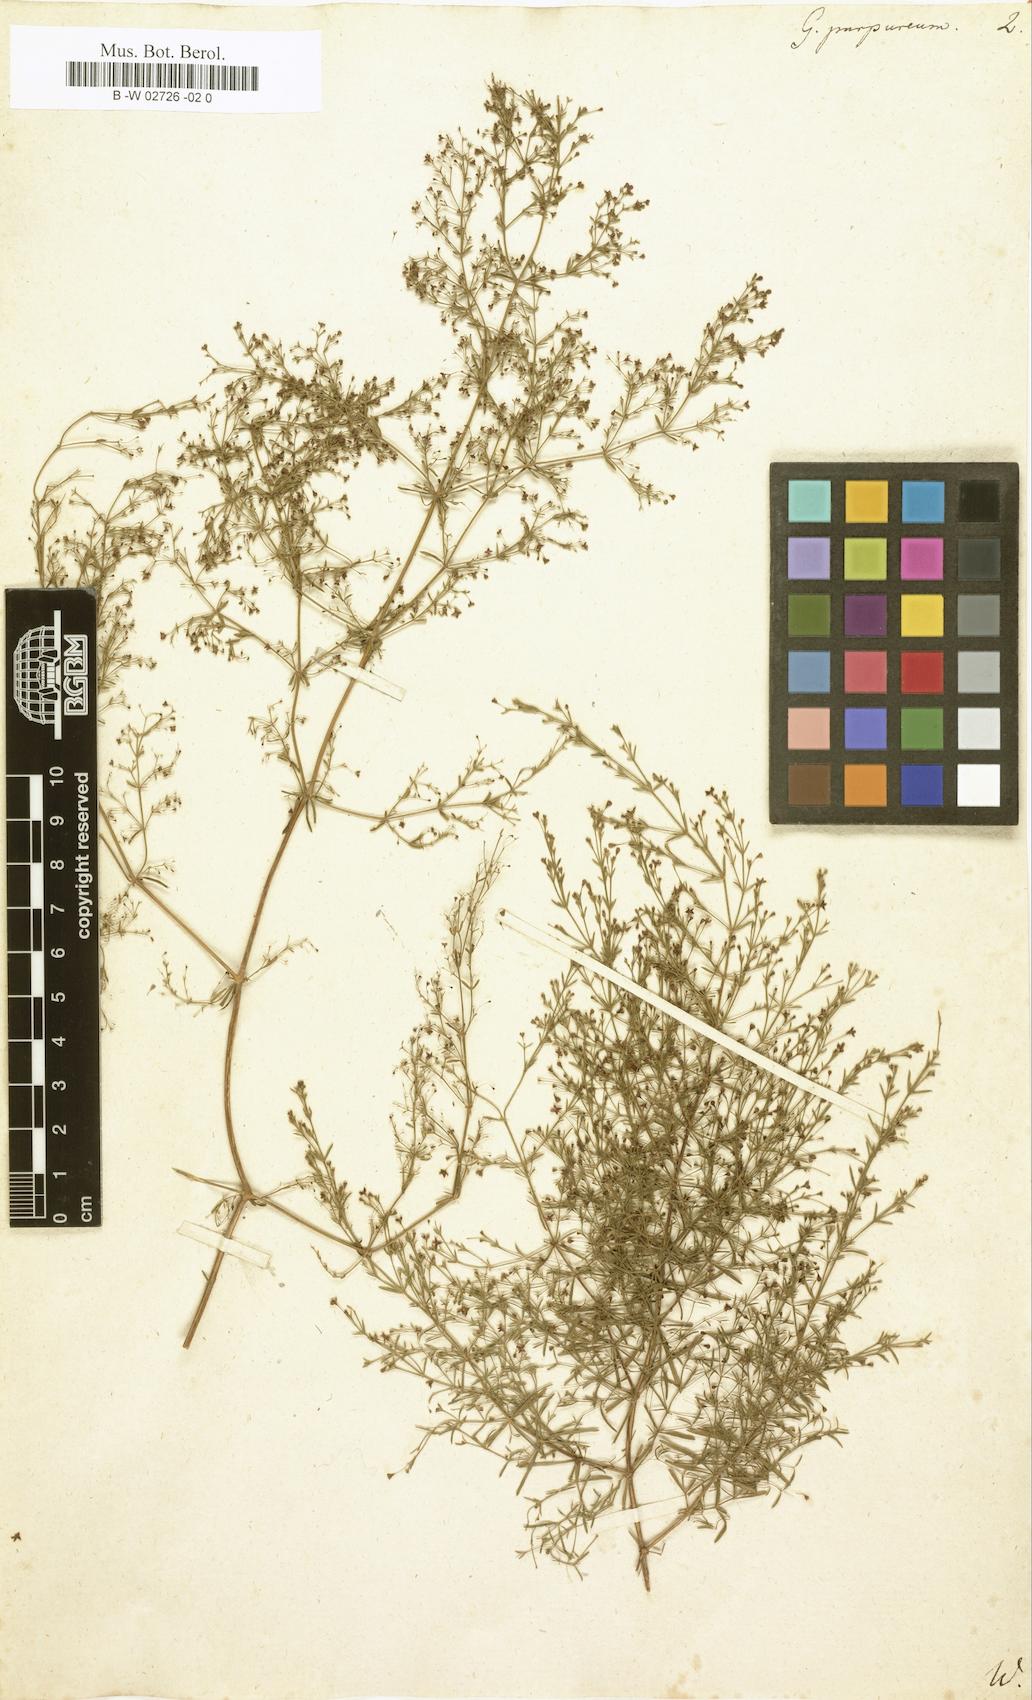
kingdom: Plantae
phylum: Tracheophyta
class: Magnoliopsida
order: Gentianales
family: Rubiaceae
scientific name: Rubiaceae
